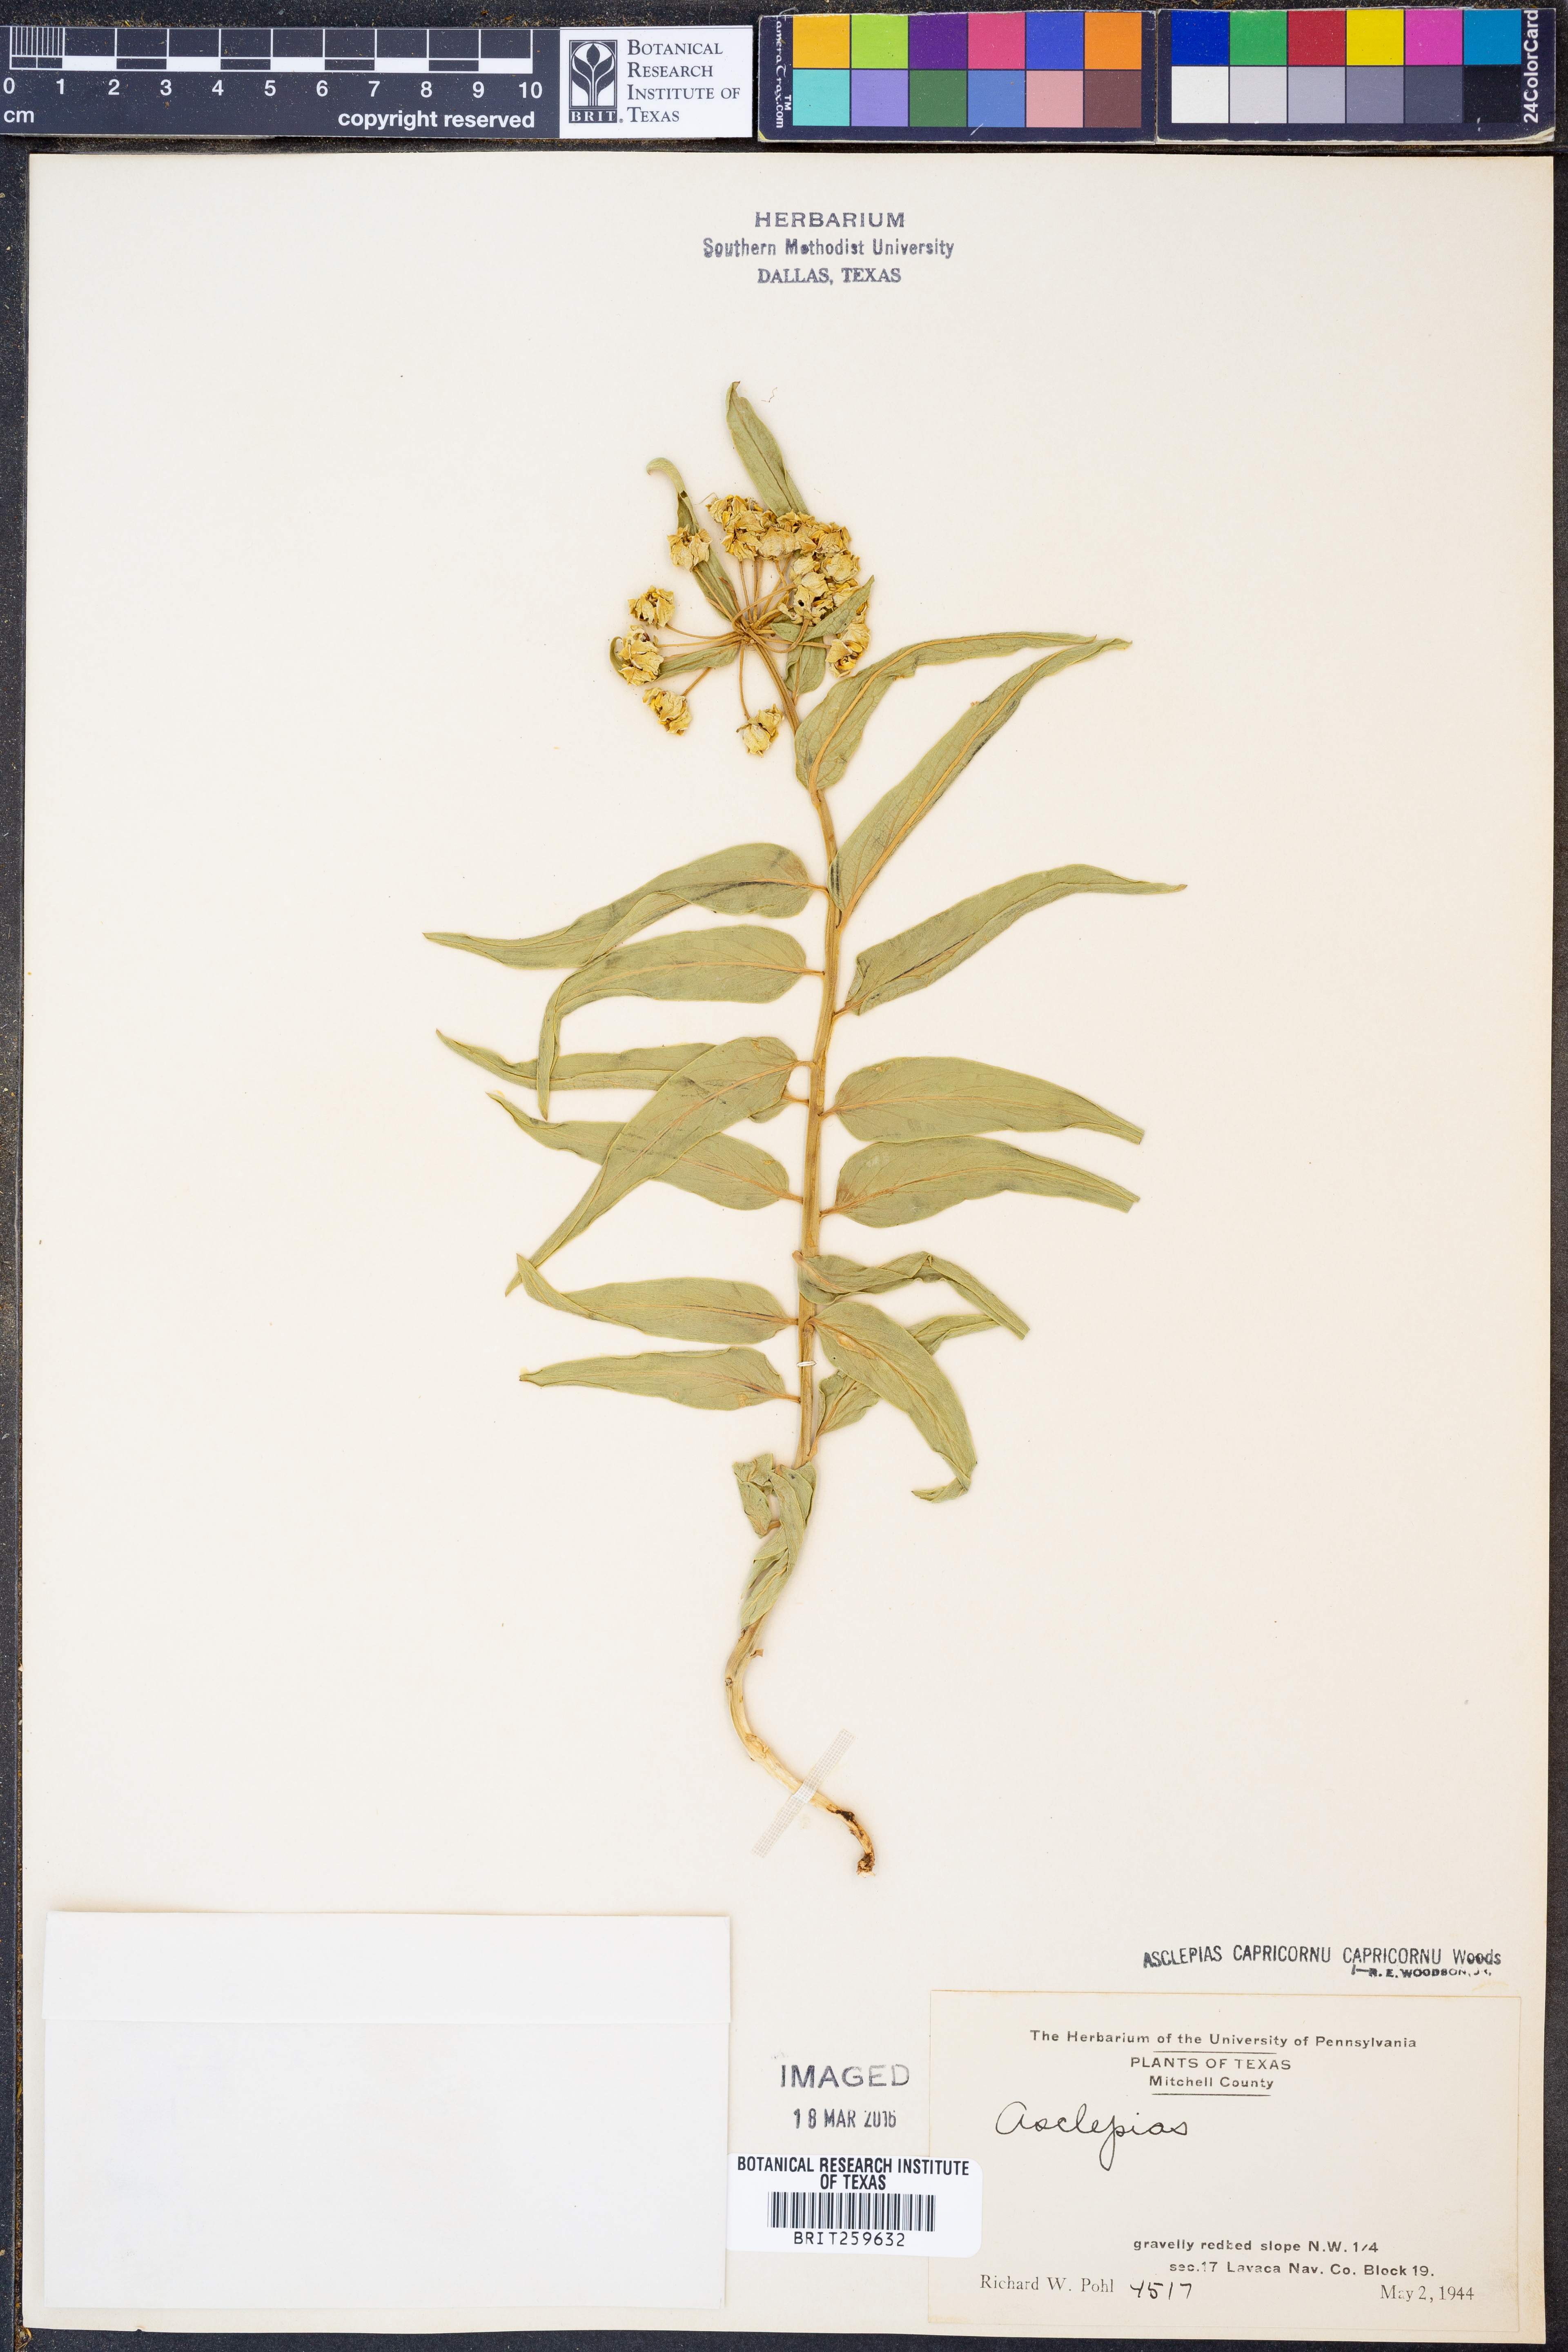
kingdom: Plantae
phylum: Tracheophyta
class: Magnoliopsida
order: Gentianales
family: Apocynaceae
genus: Asclepias
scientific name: Asclepias asperula
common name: Antelope horns
